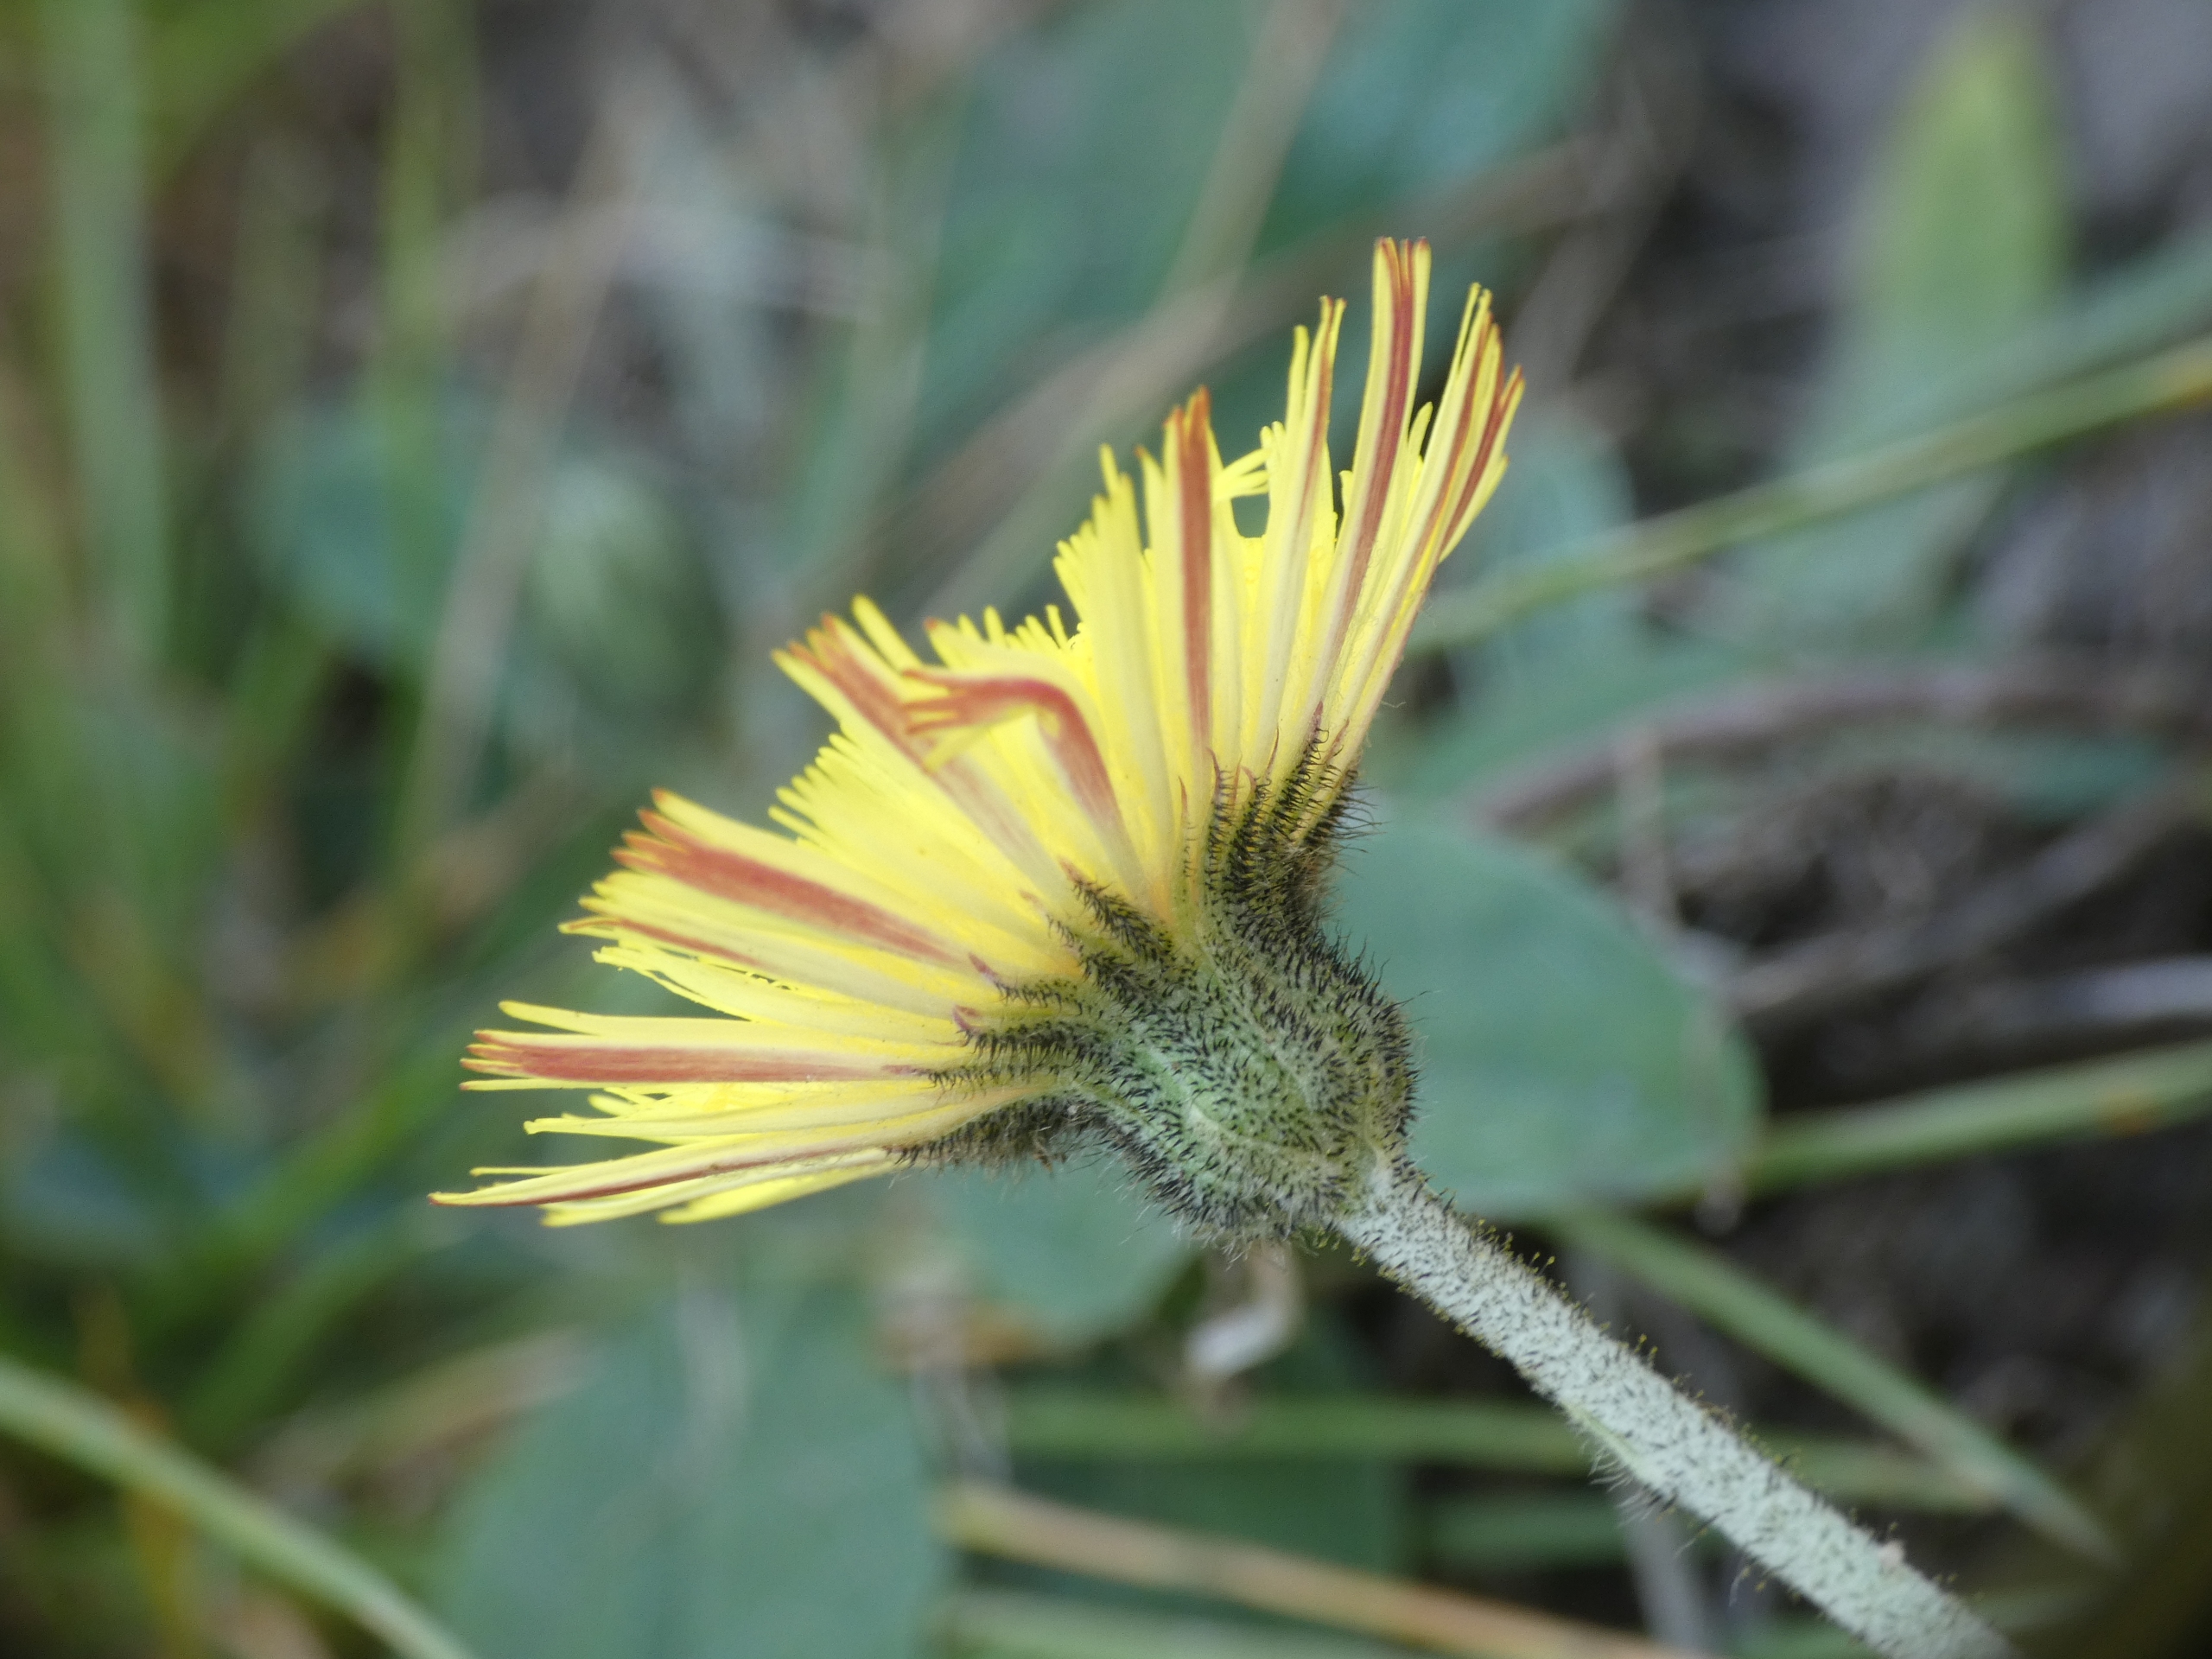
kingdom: Plantae
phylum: Tracheophyta
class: Magnoliopsida
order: Asterales
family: Asteraceae
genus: Pilosella
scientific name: Pilosella officinarum
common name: Håret høgeurt
